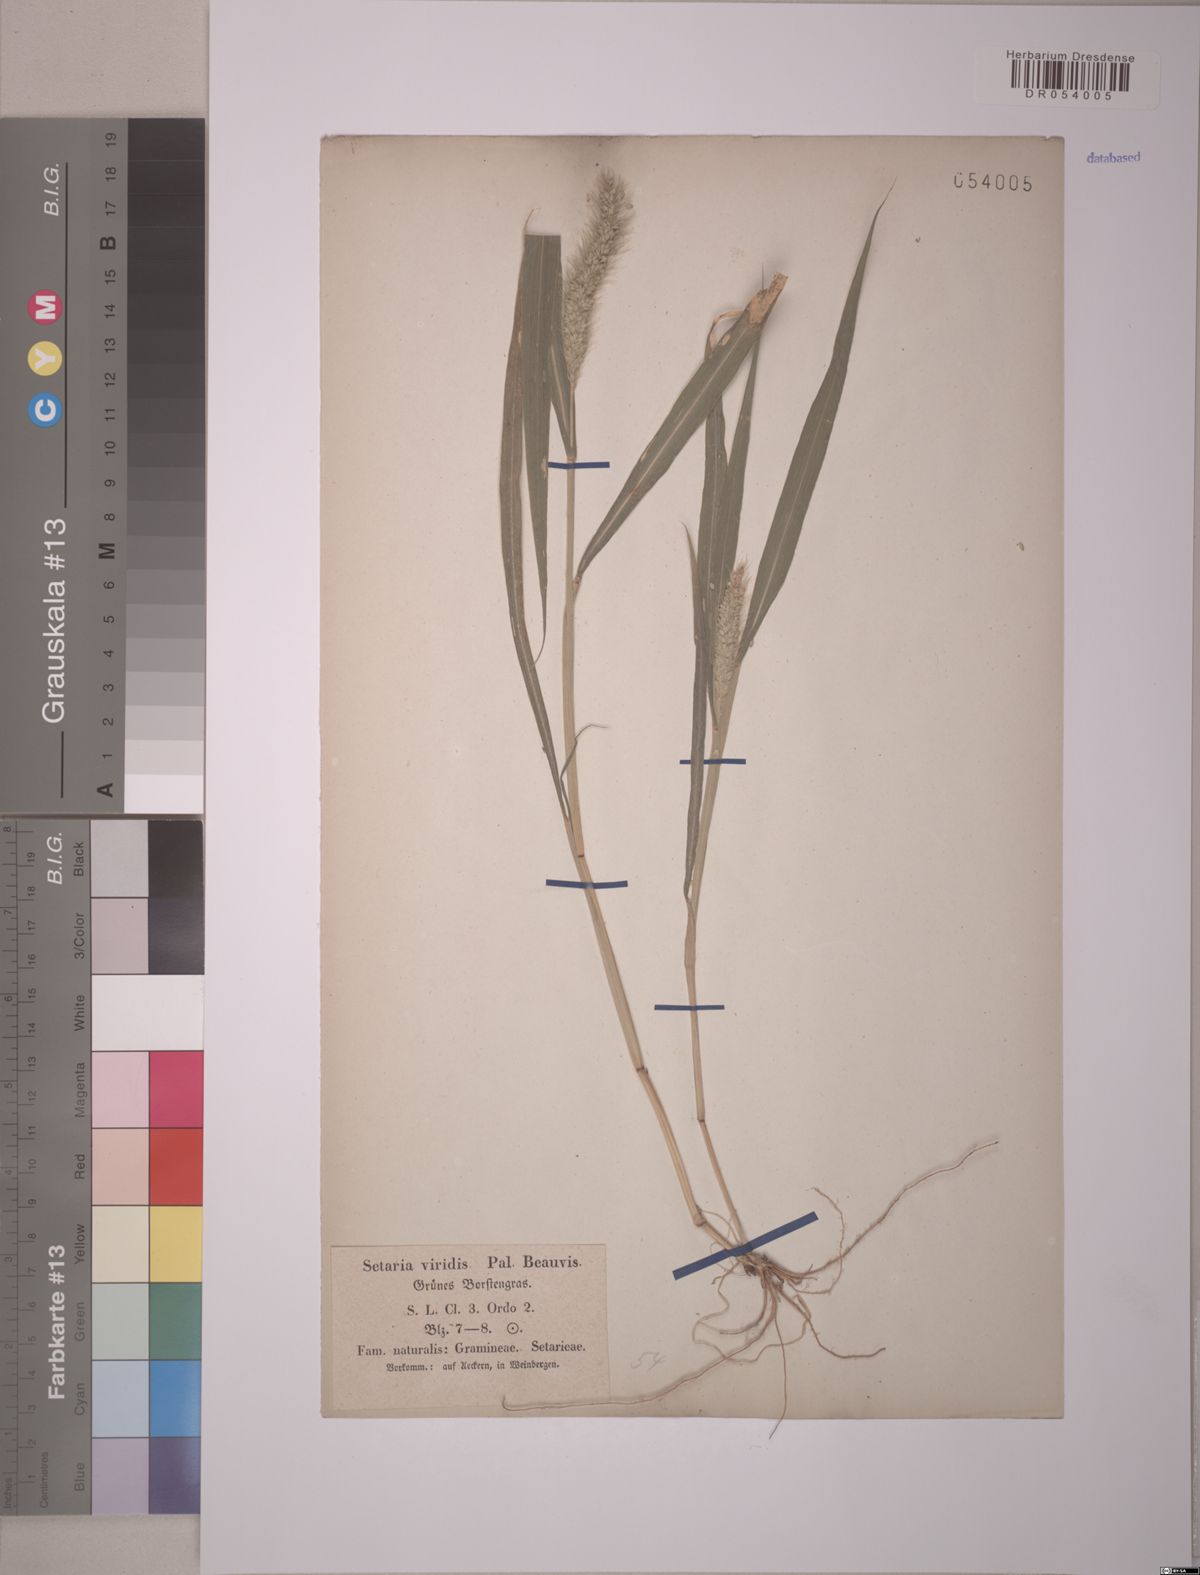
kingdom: Plantae
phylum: Tracheophyta
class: Liliopsida
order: Poales
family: Poaceae
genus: Setaria
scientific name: Setaria viridis
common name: Green bristlegrass
